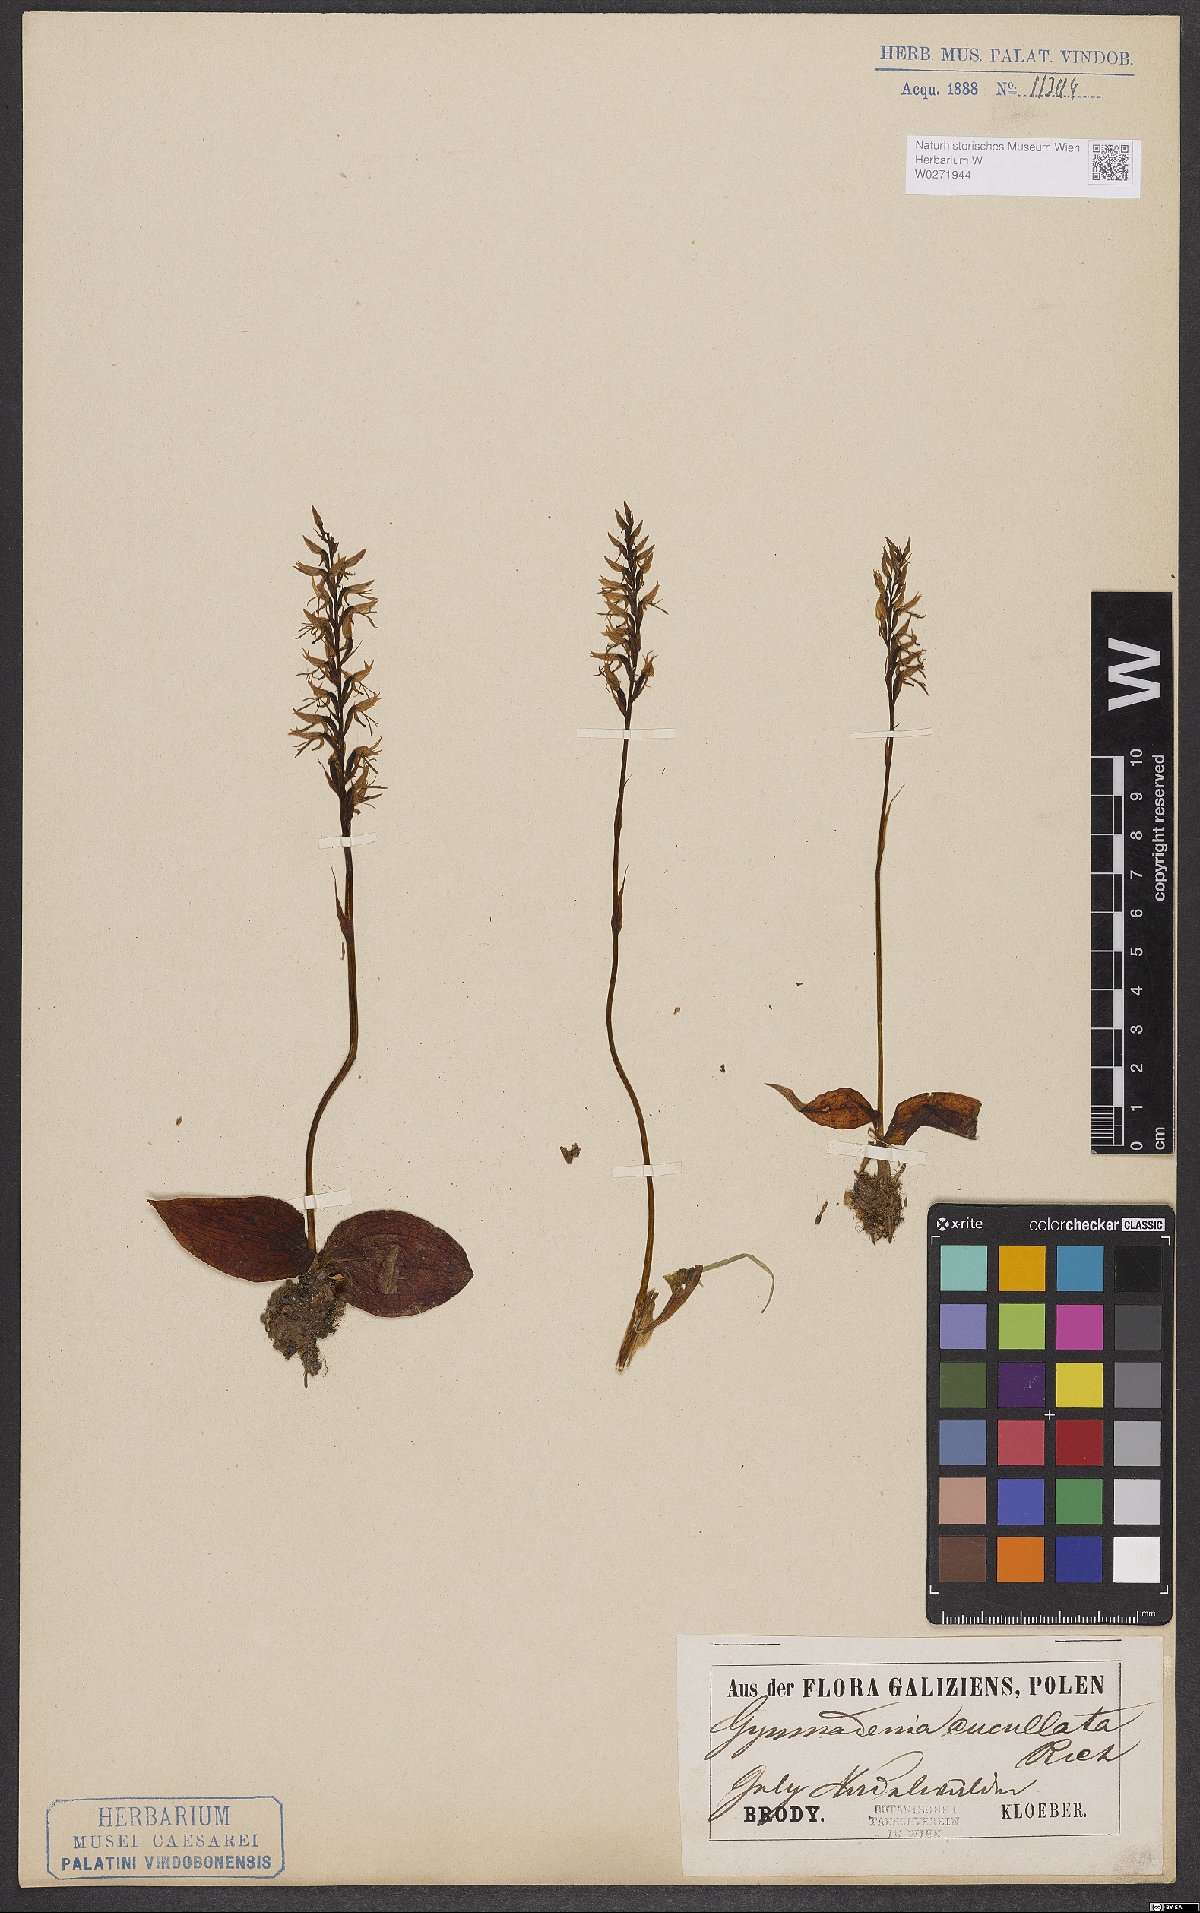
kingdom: Plantae
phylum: Tracheophyta
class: Liliopsida
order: Asparagales
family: Orchidaceae
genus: Hemipilia
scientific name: Hemipilia cucullata
